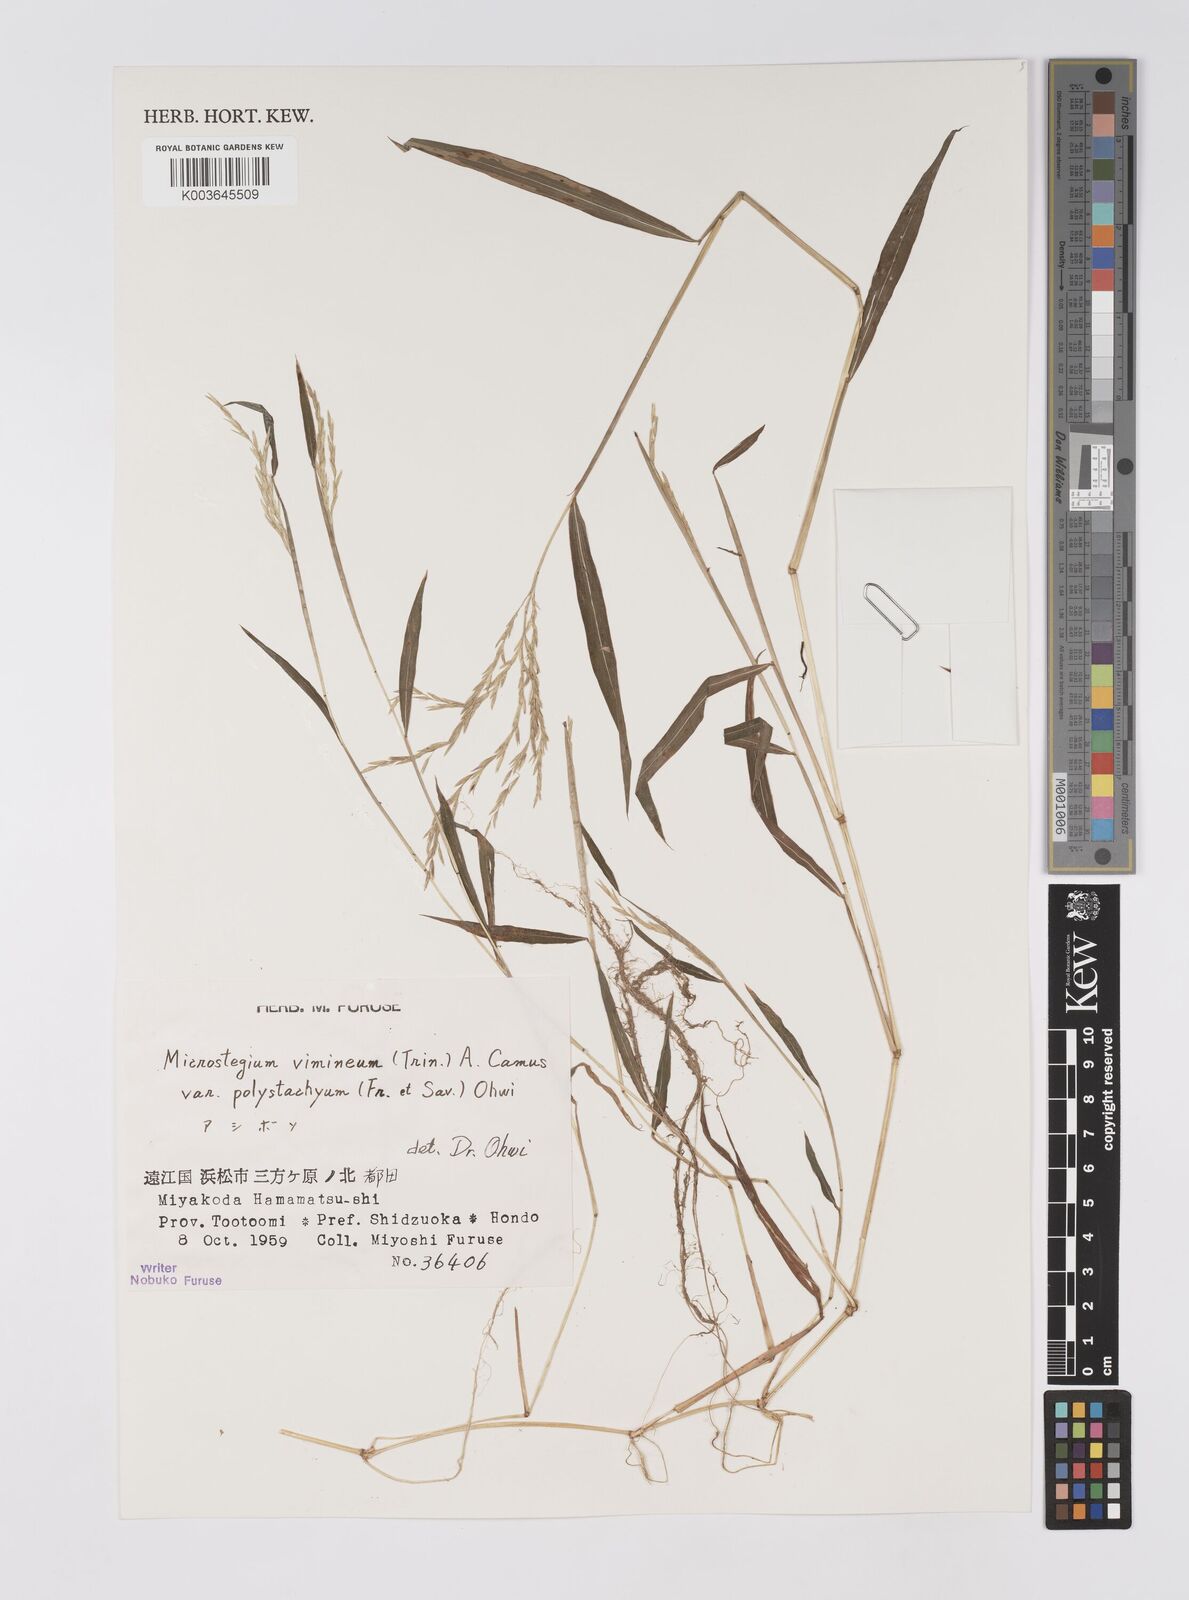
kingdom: Plantae
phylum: Tracheophyta
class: Liliopsida
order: Poales
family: Poaceae
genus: Microstegium
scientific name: Microstegium vimineum
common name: Japanese stiltgrass
